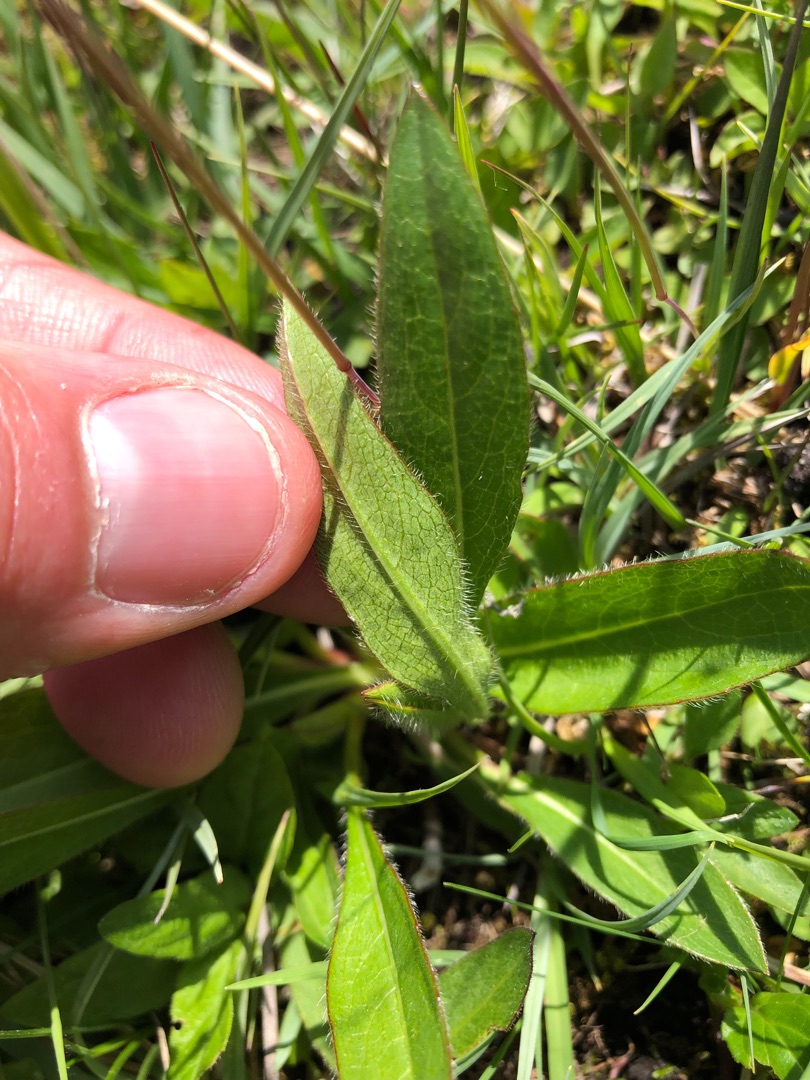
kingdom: Plantae
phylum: Tracheophyta
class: Magnoliopsida
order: Dipsacales
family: Caprifoliaceae
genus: Succisa
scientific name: Succisa pratensis
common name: Djævelsbid
